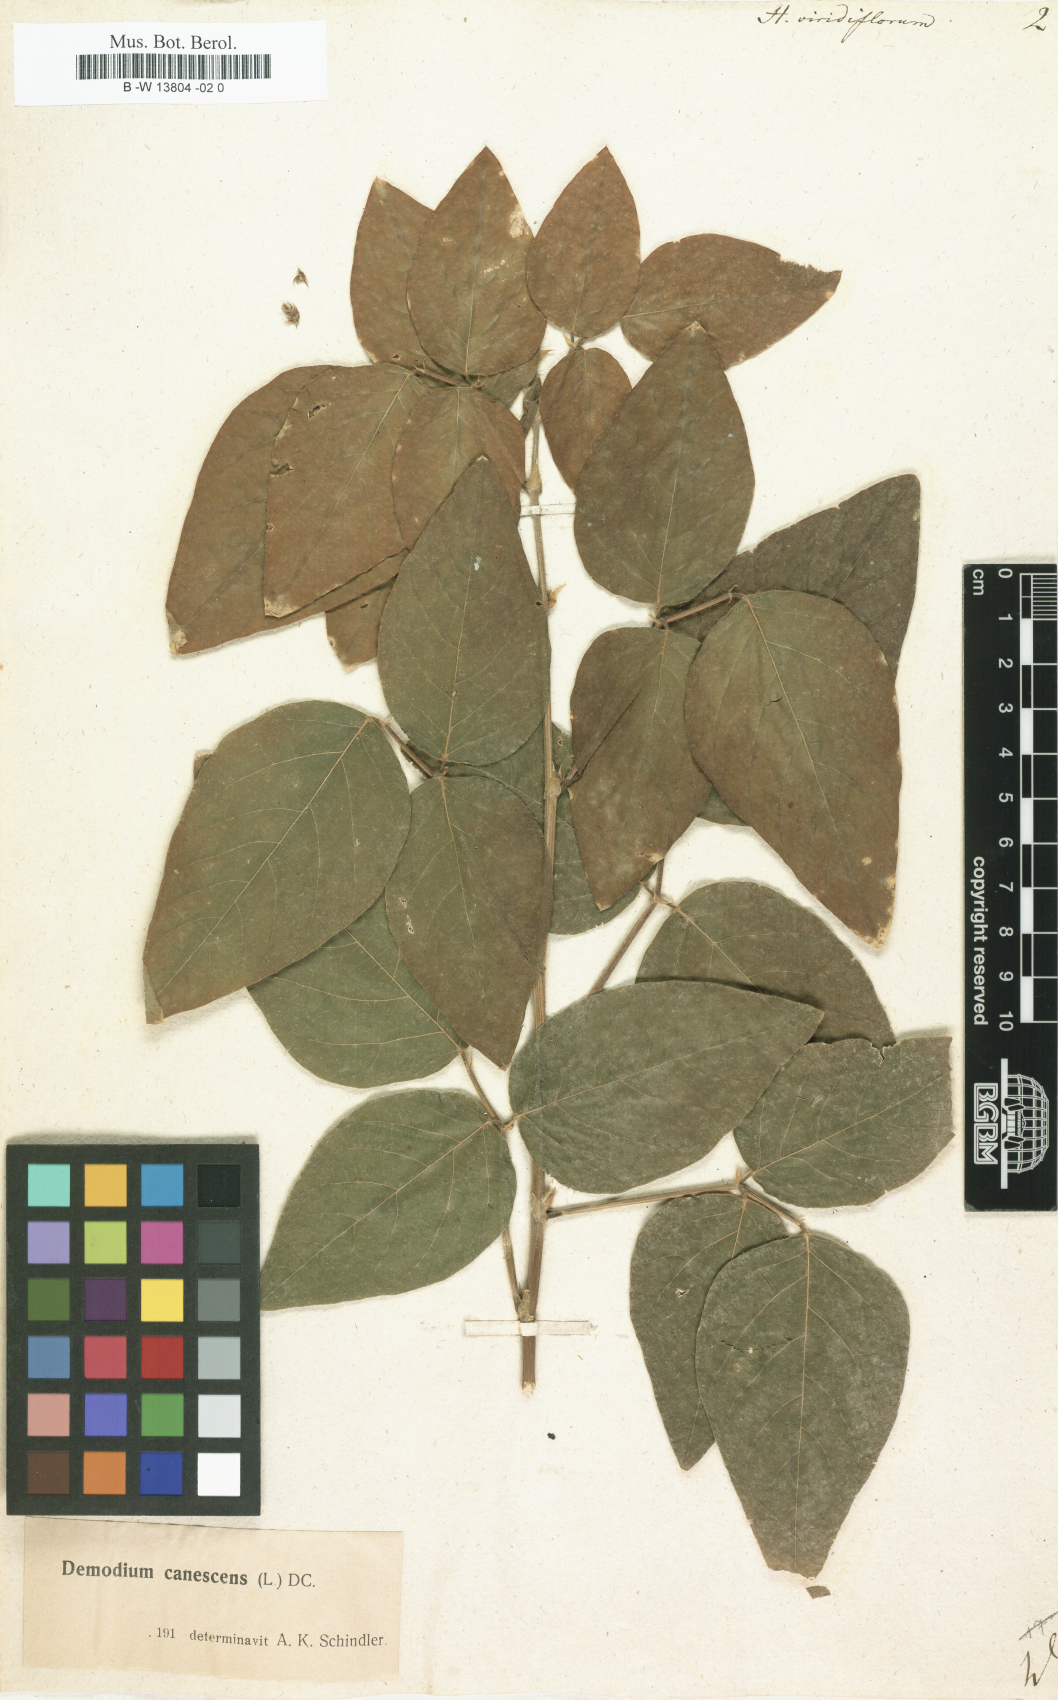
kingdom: Plantae
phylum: Tracheophyta
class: Magnoliopsida
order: Fabales
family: Fabaceae
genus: Desmodium
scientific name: Desmodium viridiflorum
